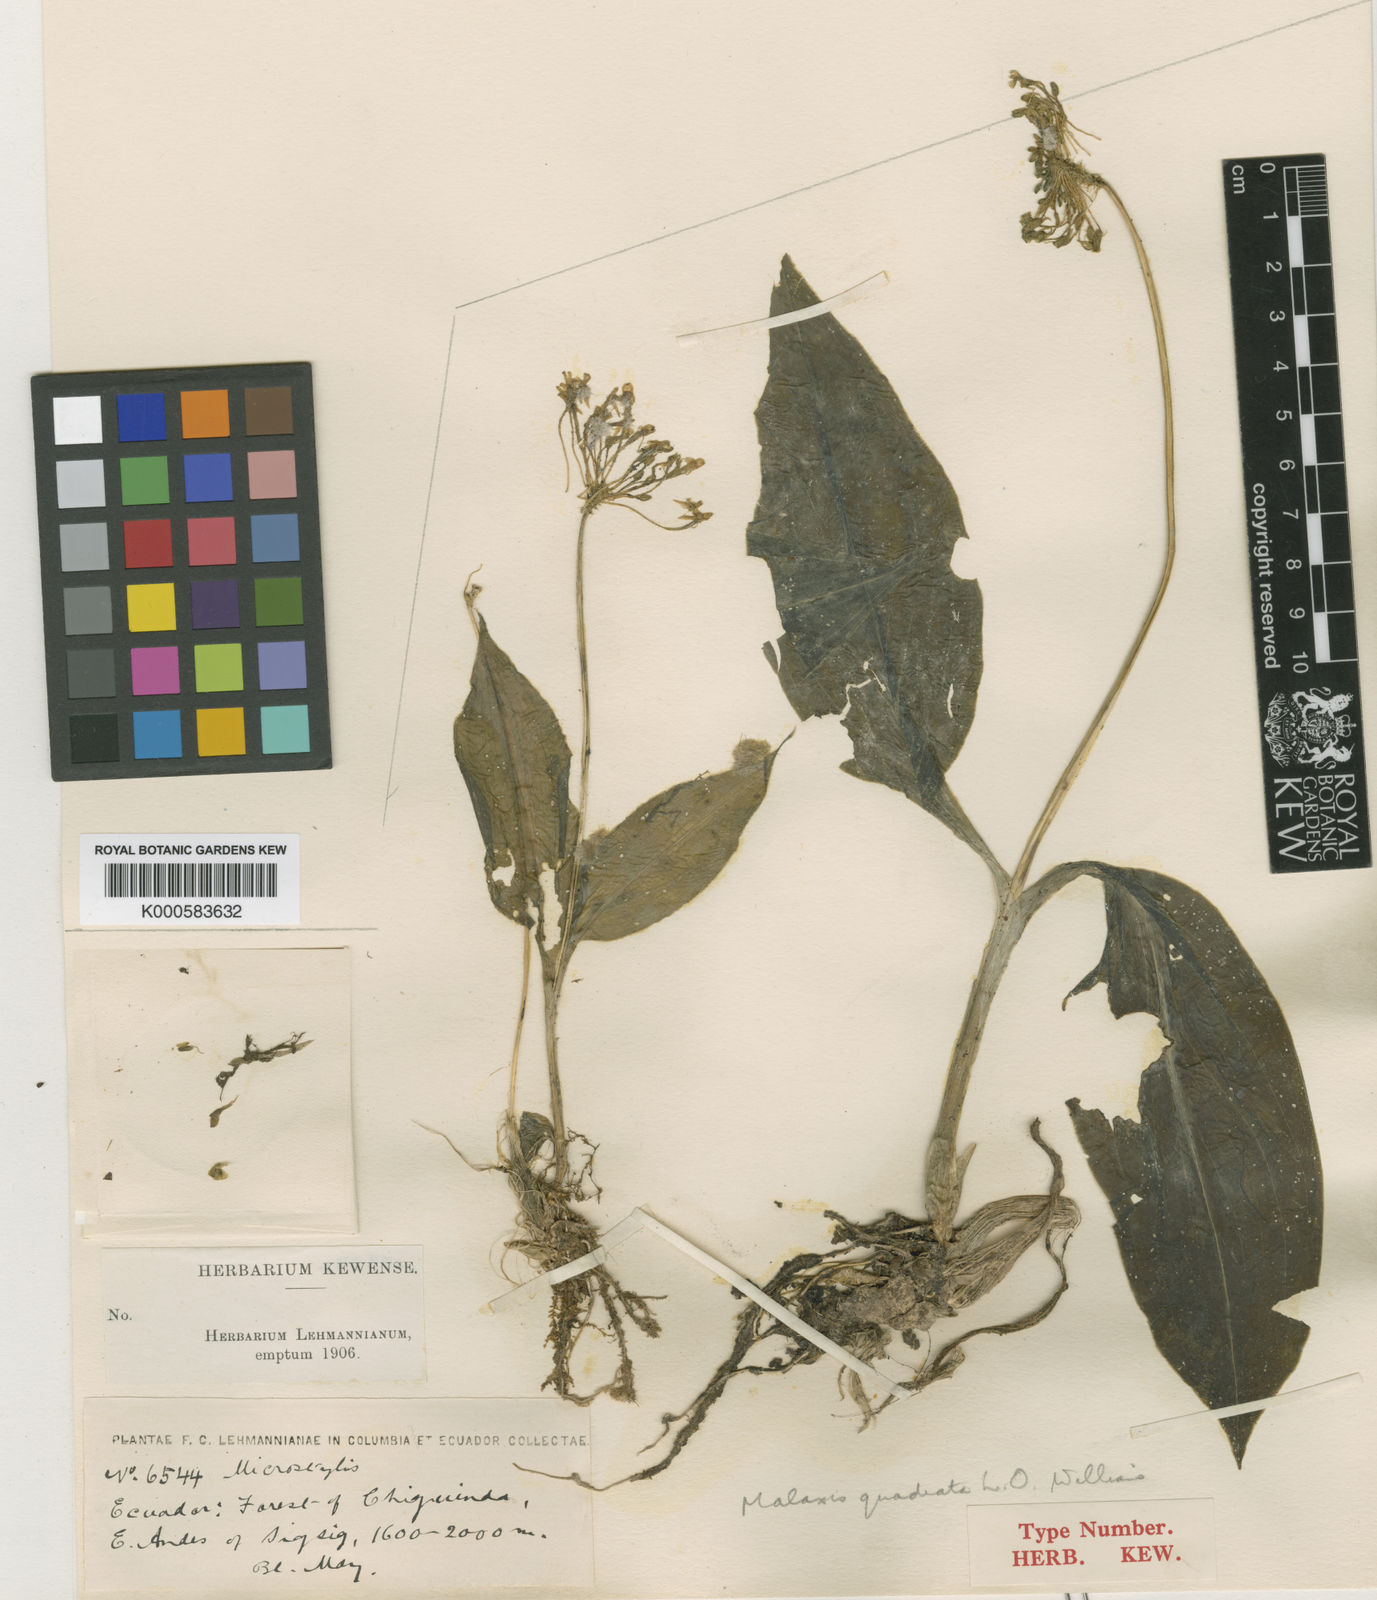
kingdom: Plantae
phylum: Tracheophyta
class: Liliopsida
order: Asparagales
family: Orchidaceae
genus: Malaxis
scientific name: Malaxis quadrata
